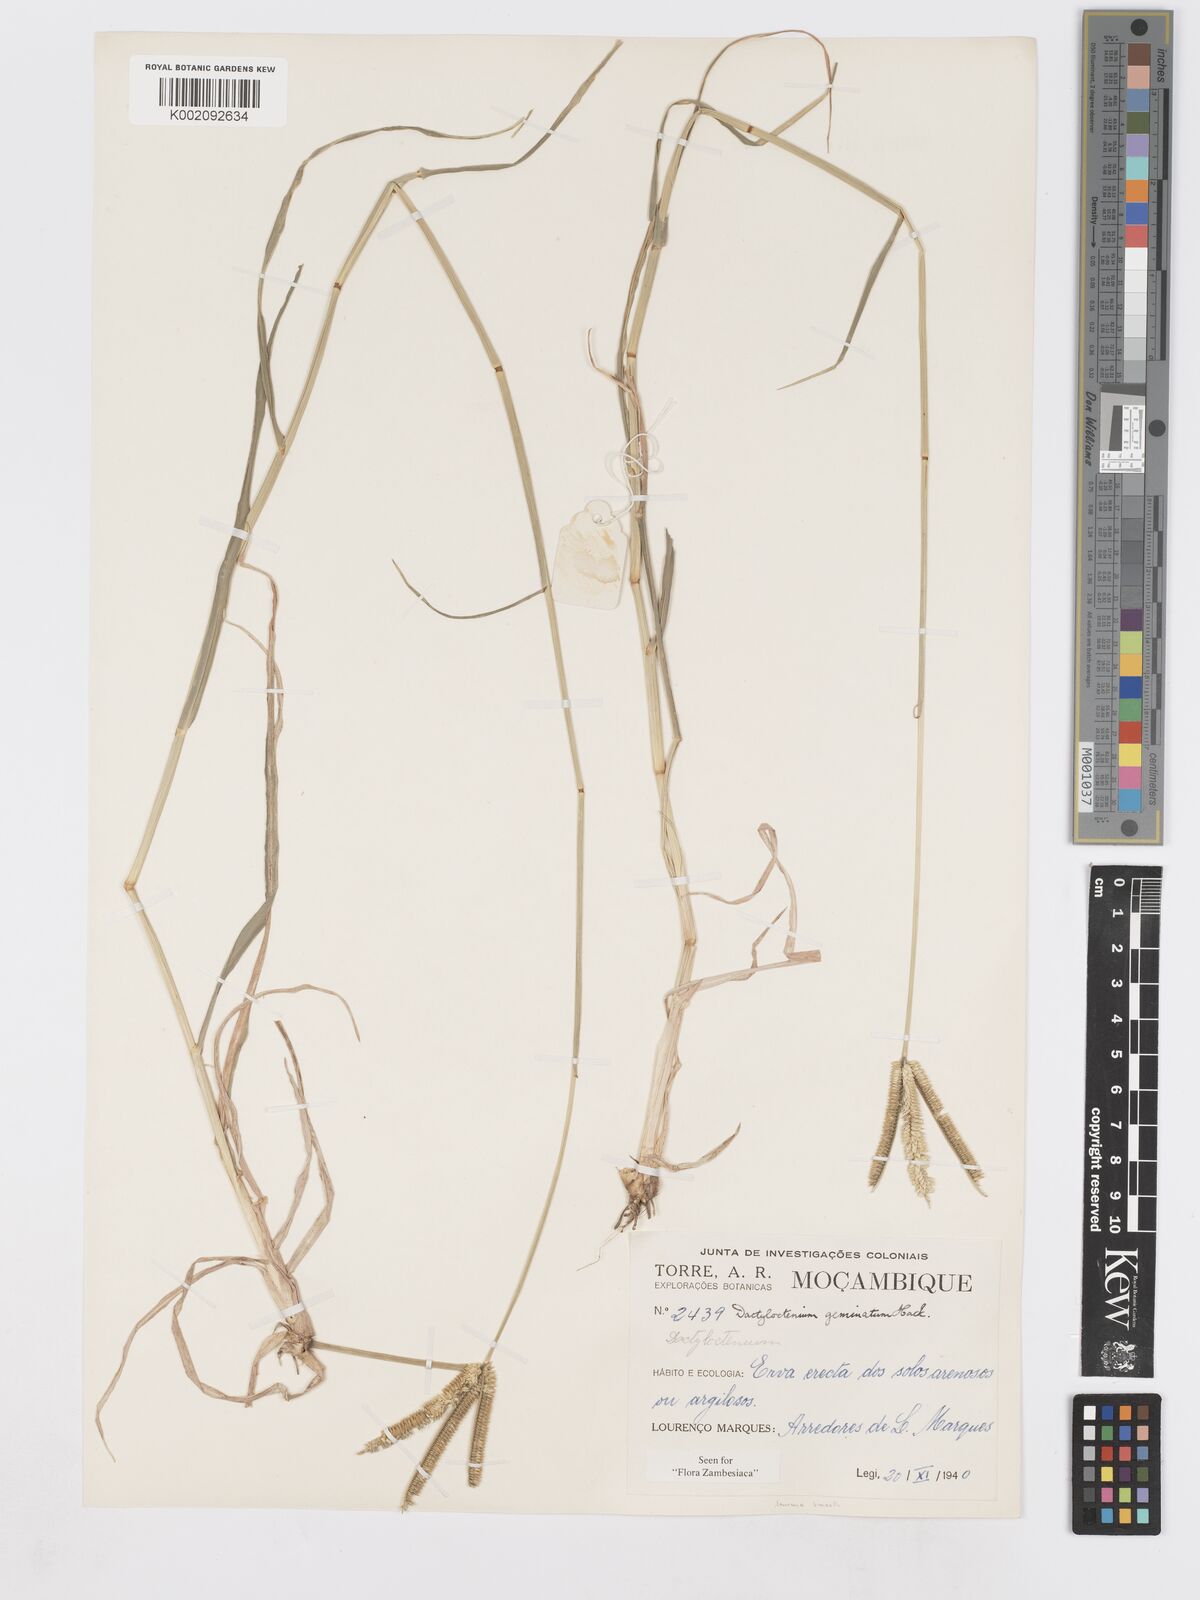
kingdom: Plantae
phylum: Tracheophyta
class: Liliopsida
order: Poales
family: Poaceae
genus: Dactyloctenium
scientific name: Dactyloctenium geminatum
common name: Crowsfoot grass
